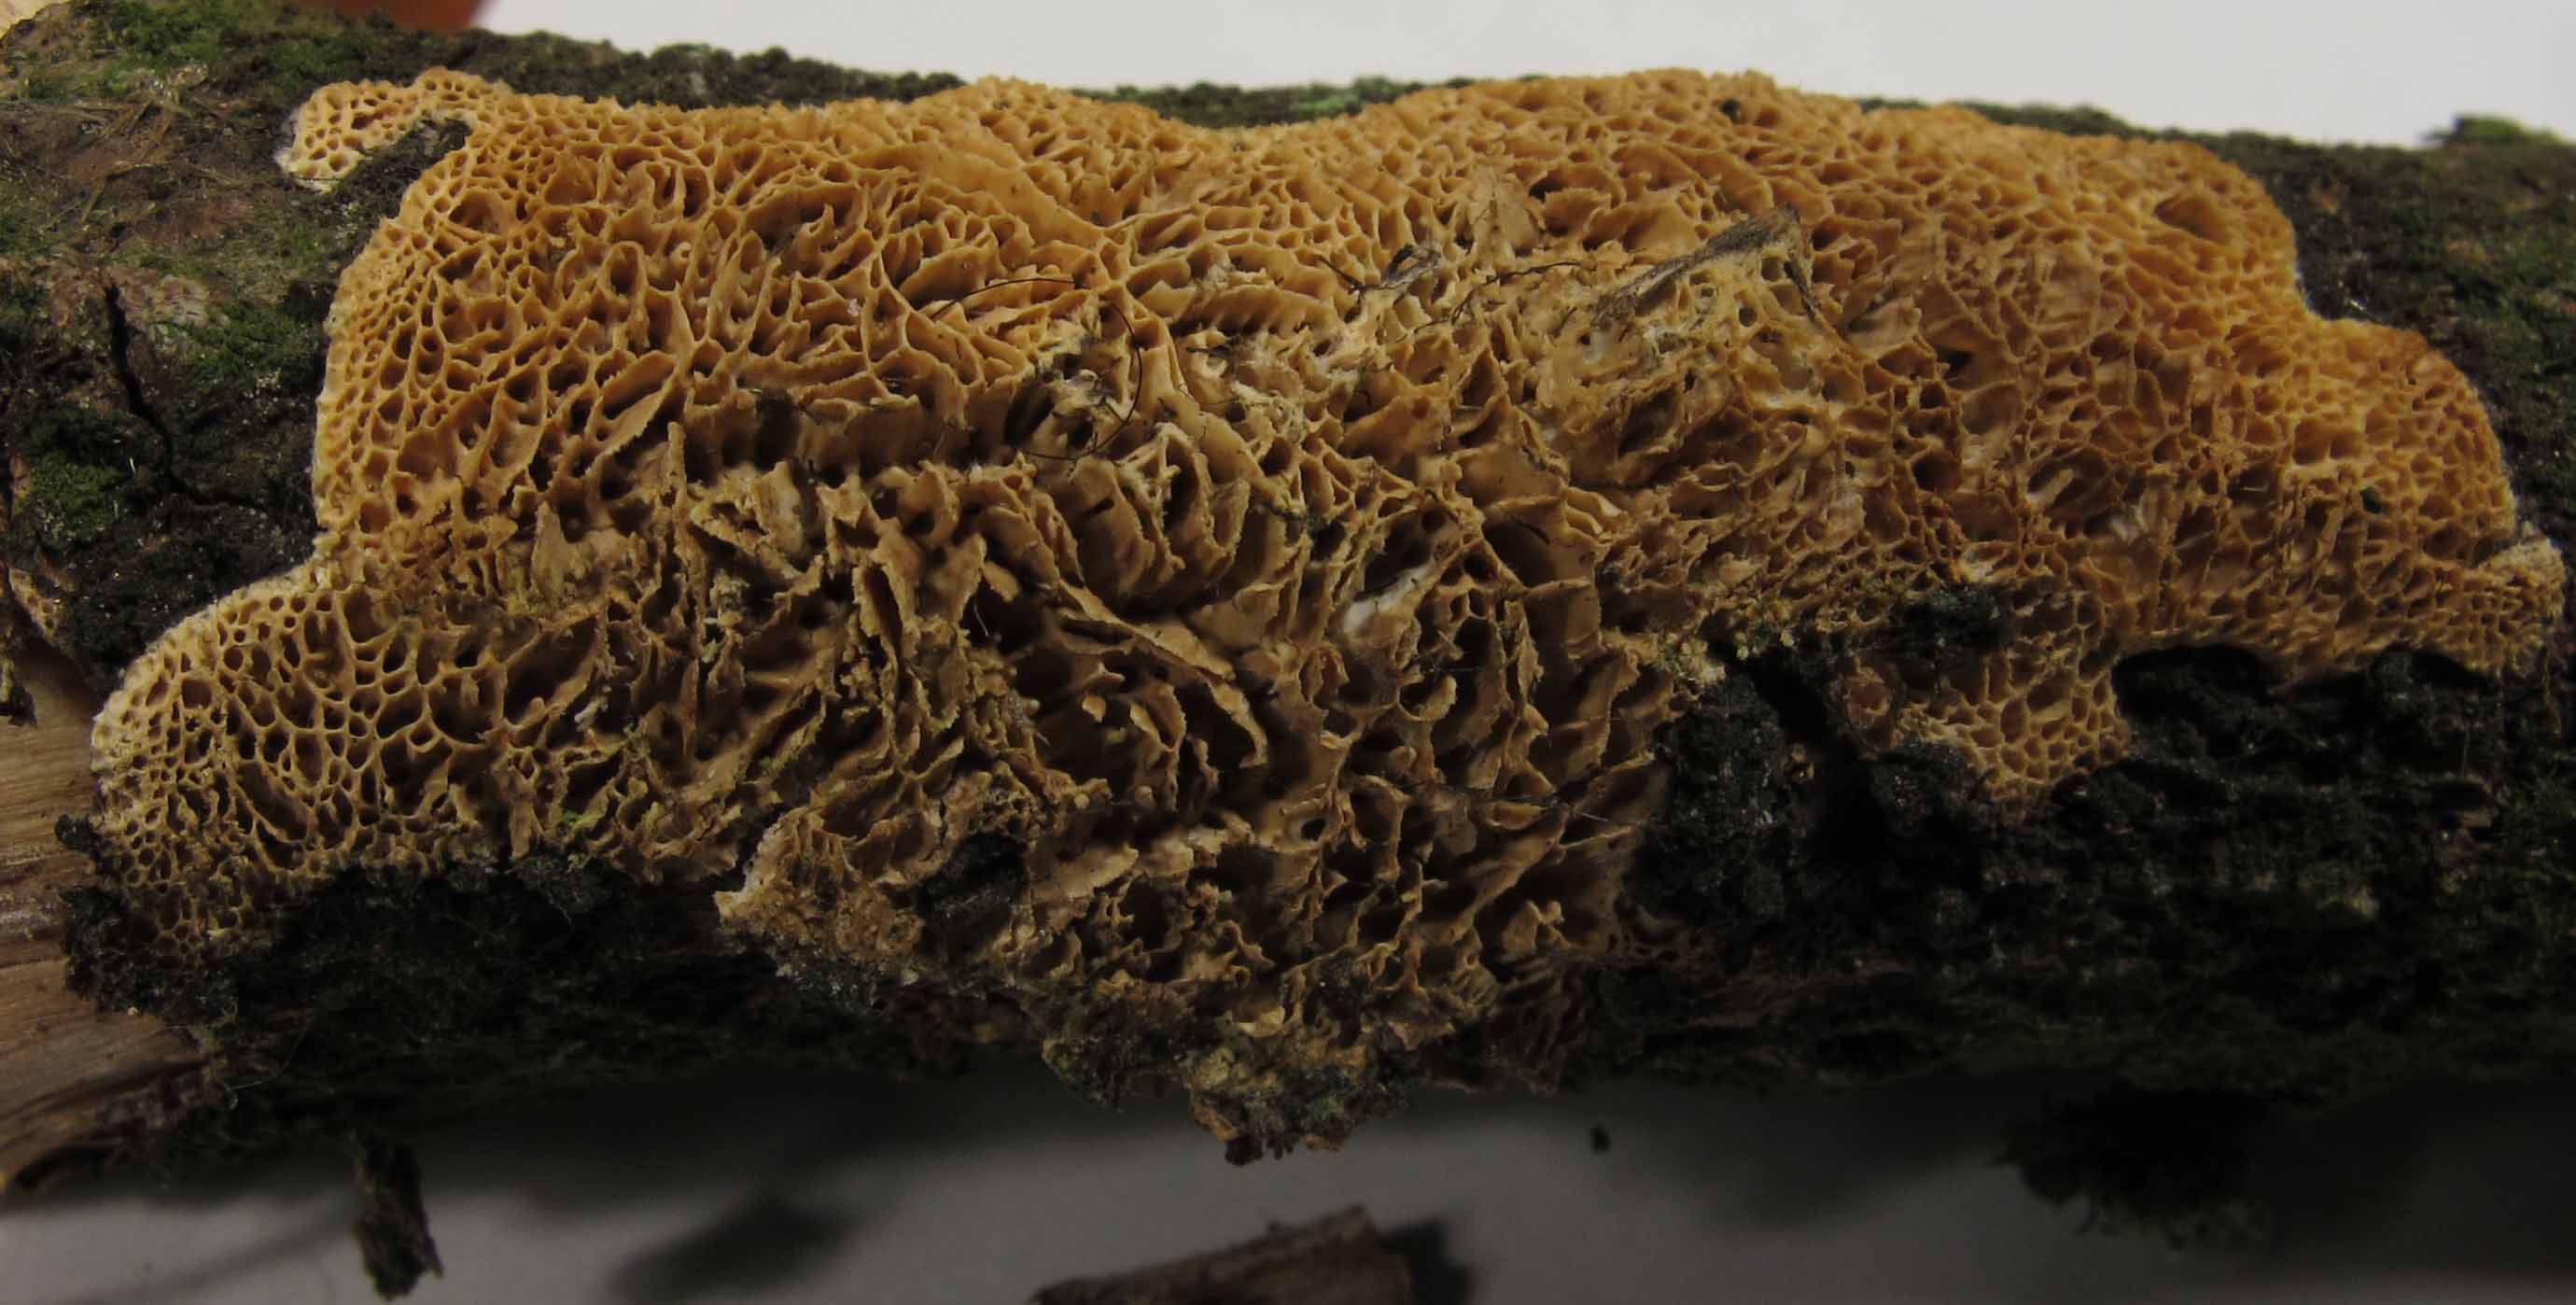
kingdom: Fungi
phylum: Basidiomycota
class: Agaricomycetes
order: Polyporales
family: Irpicaceae
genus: Resiniporus
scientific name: Resiniporus resinascens
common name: trist pastelporesvamp
